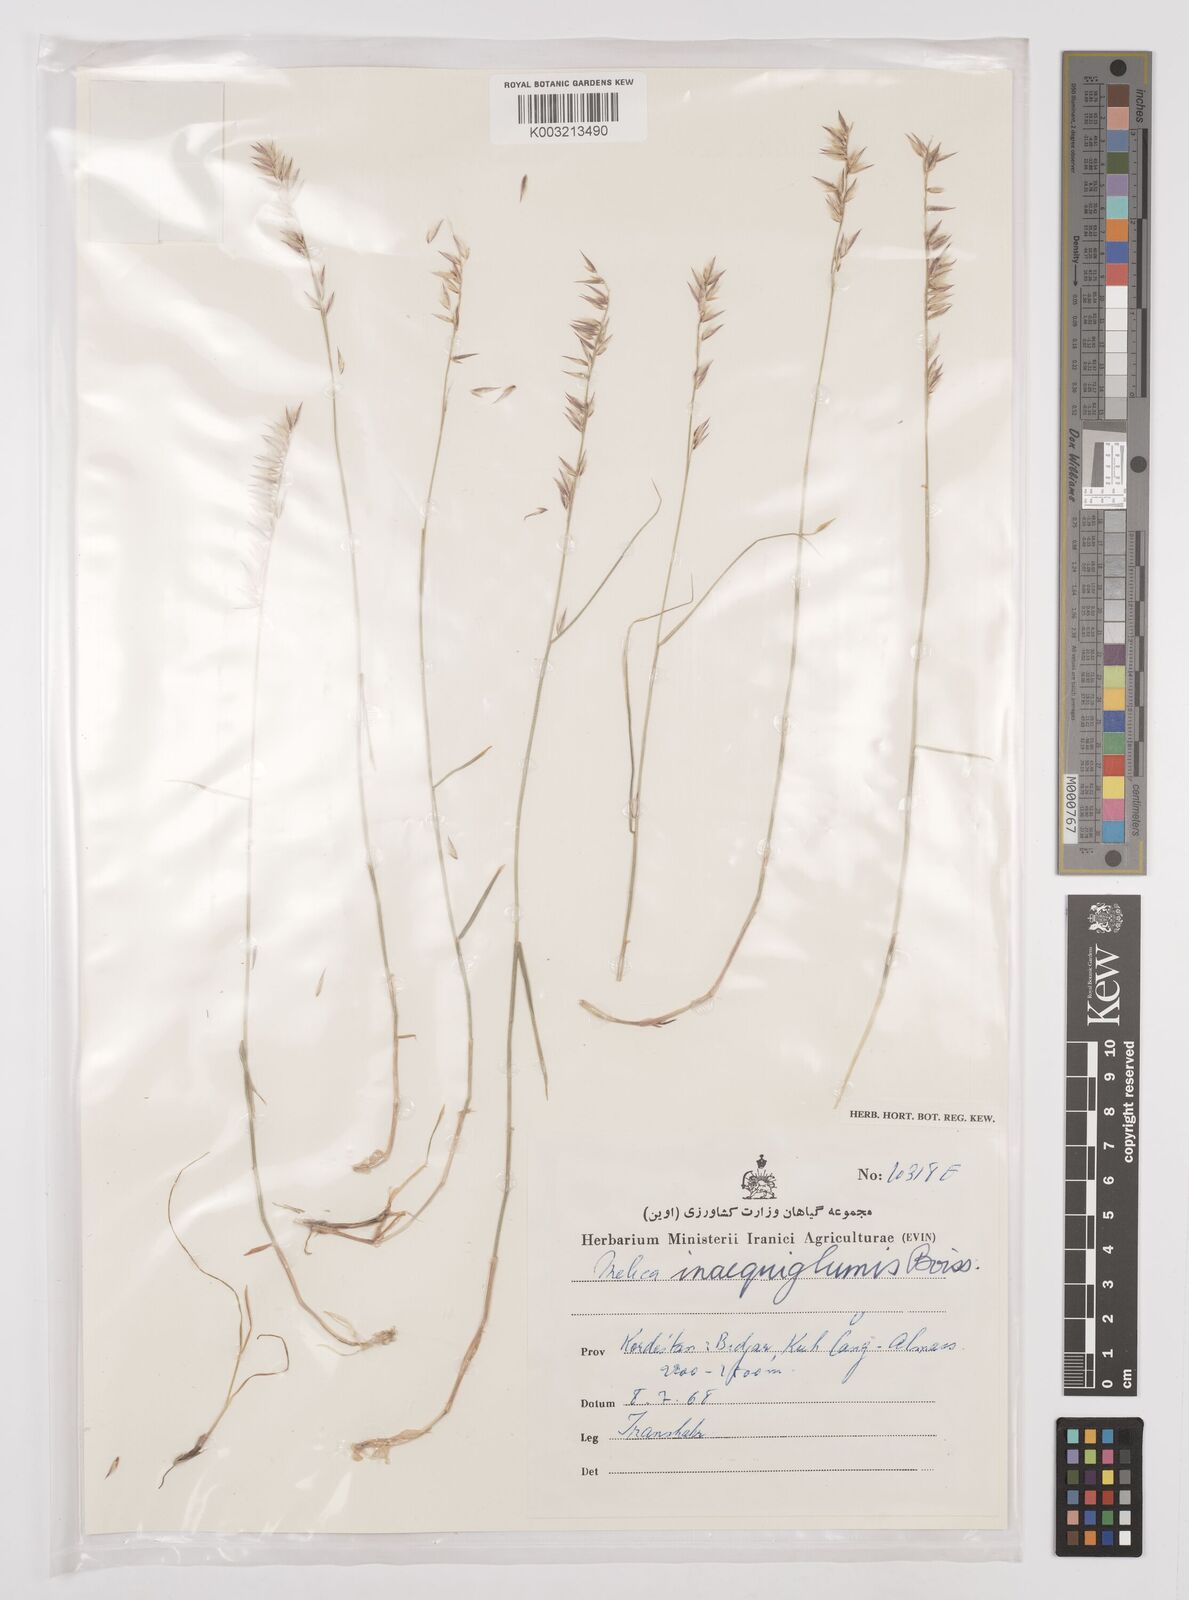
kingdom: Plantae
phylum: Tracheophyta
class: Liliopsida
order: Poales
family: Poaceae
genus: Melica
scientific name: Melica persica
